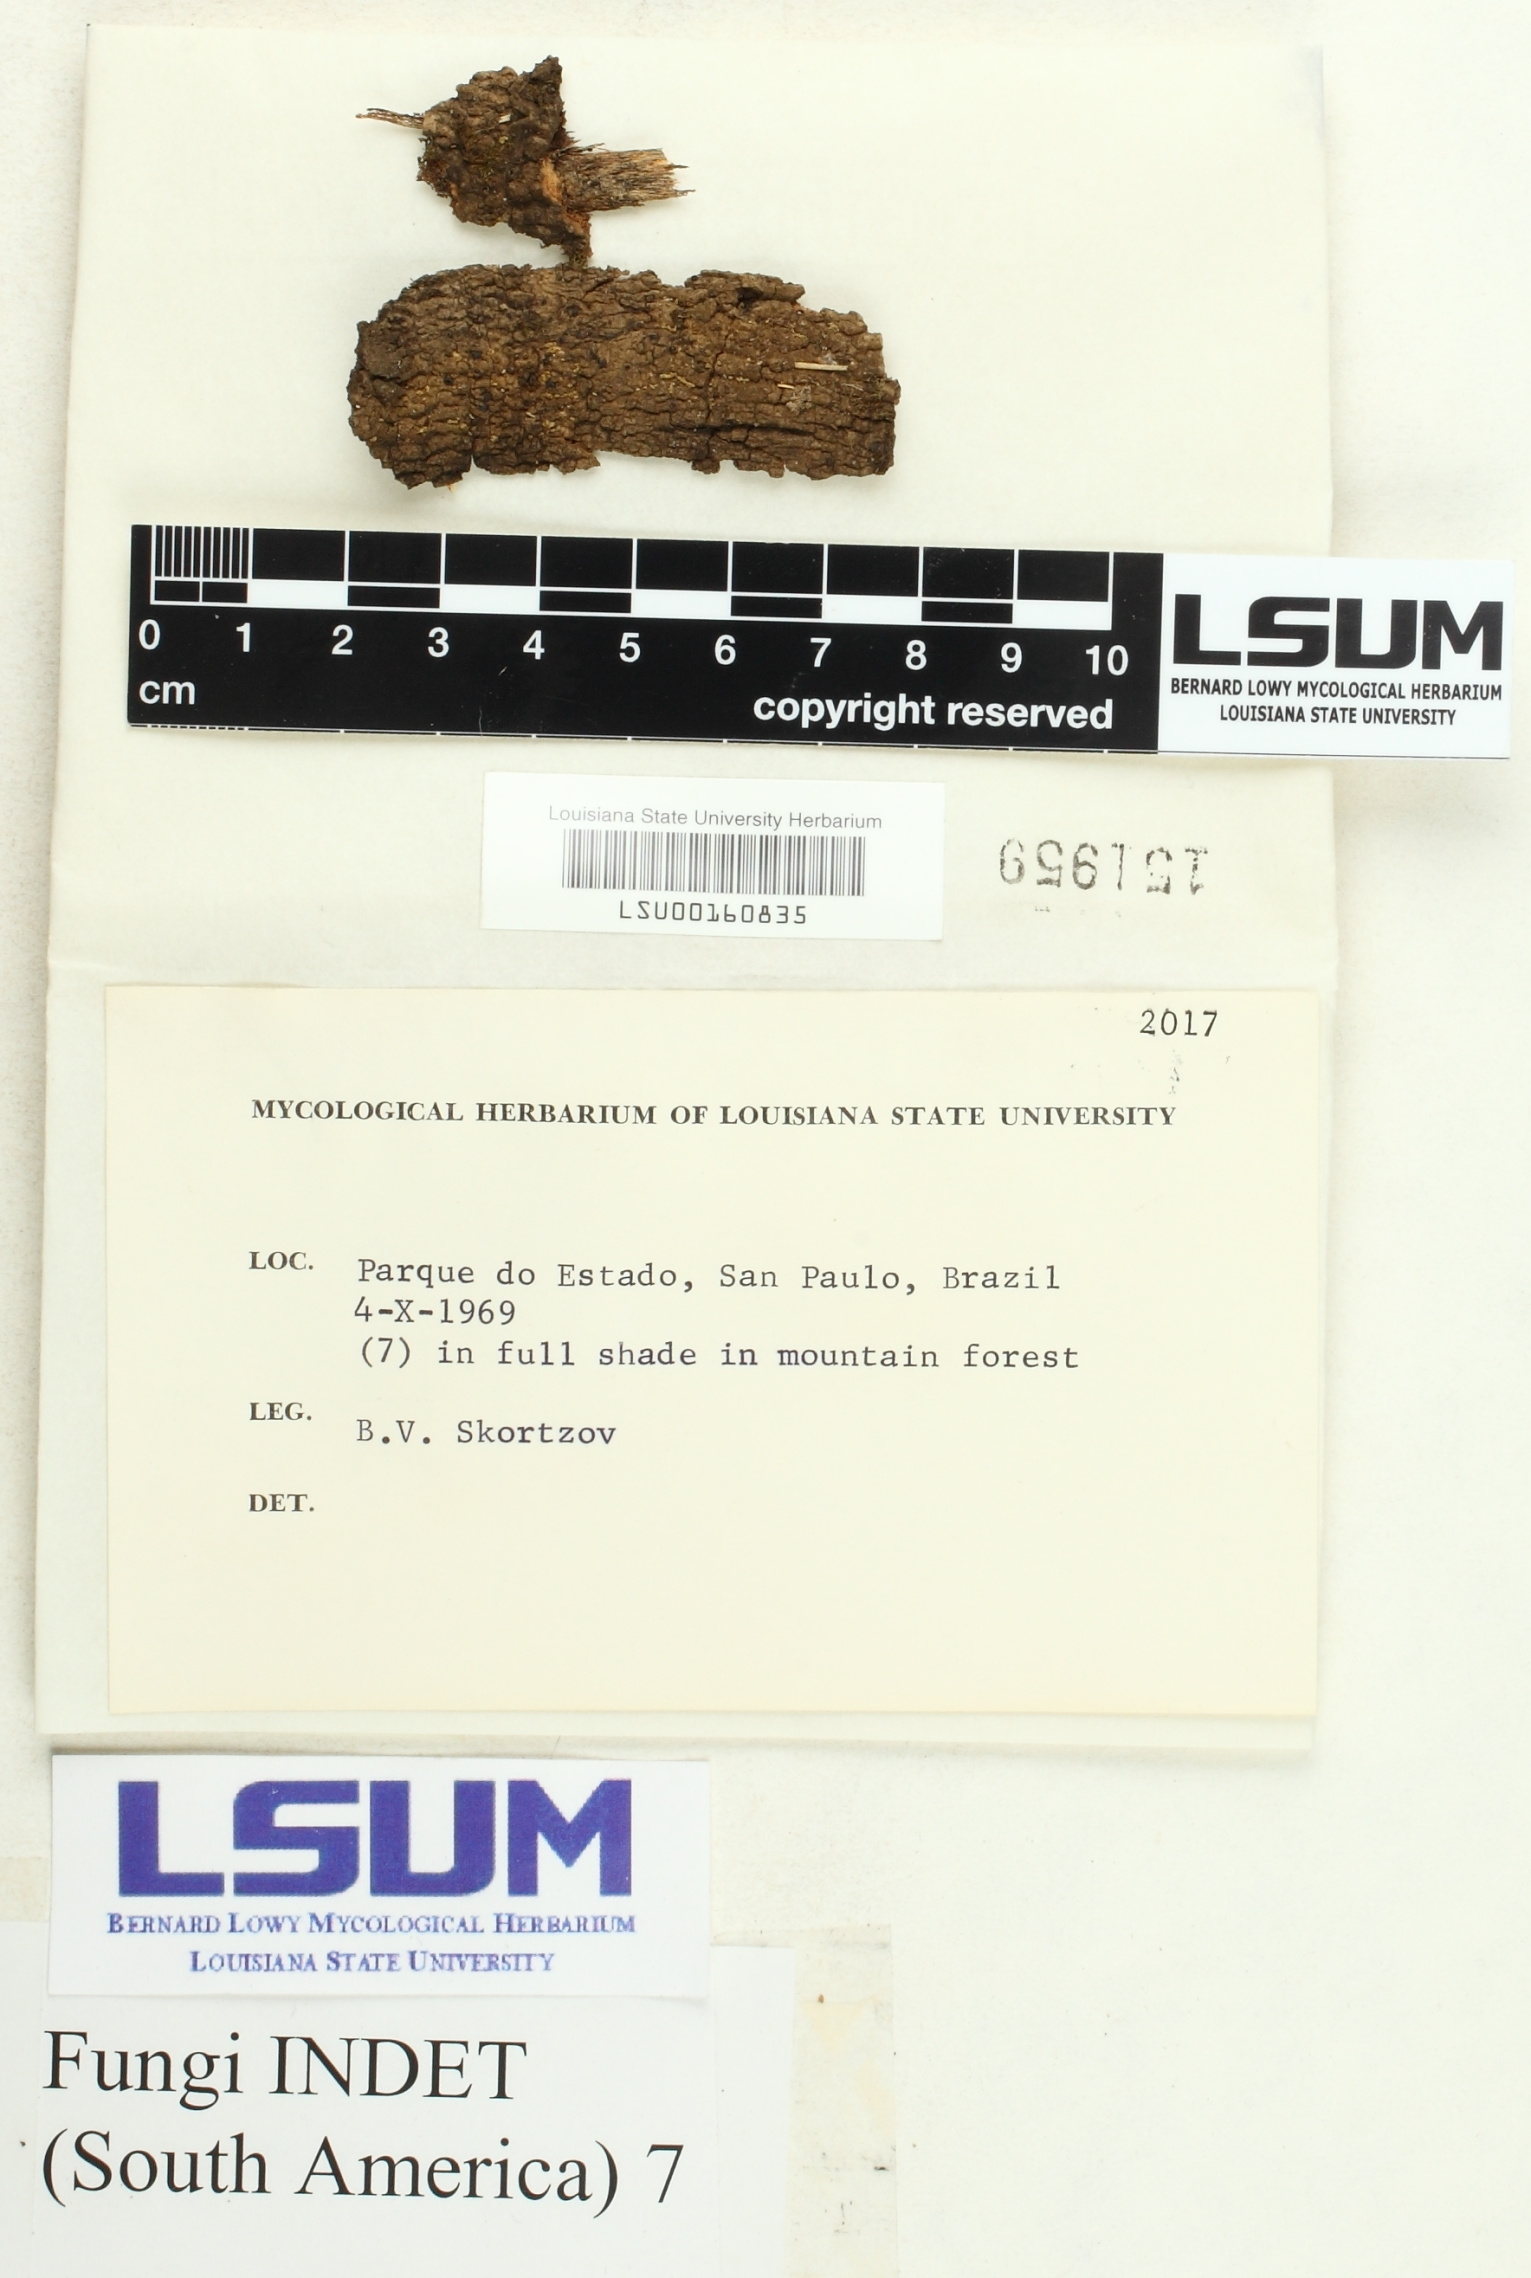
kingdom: Fungi
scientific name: Fungi
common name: Fungi
